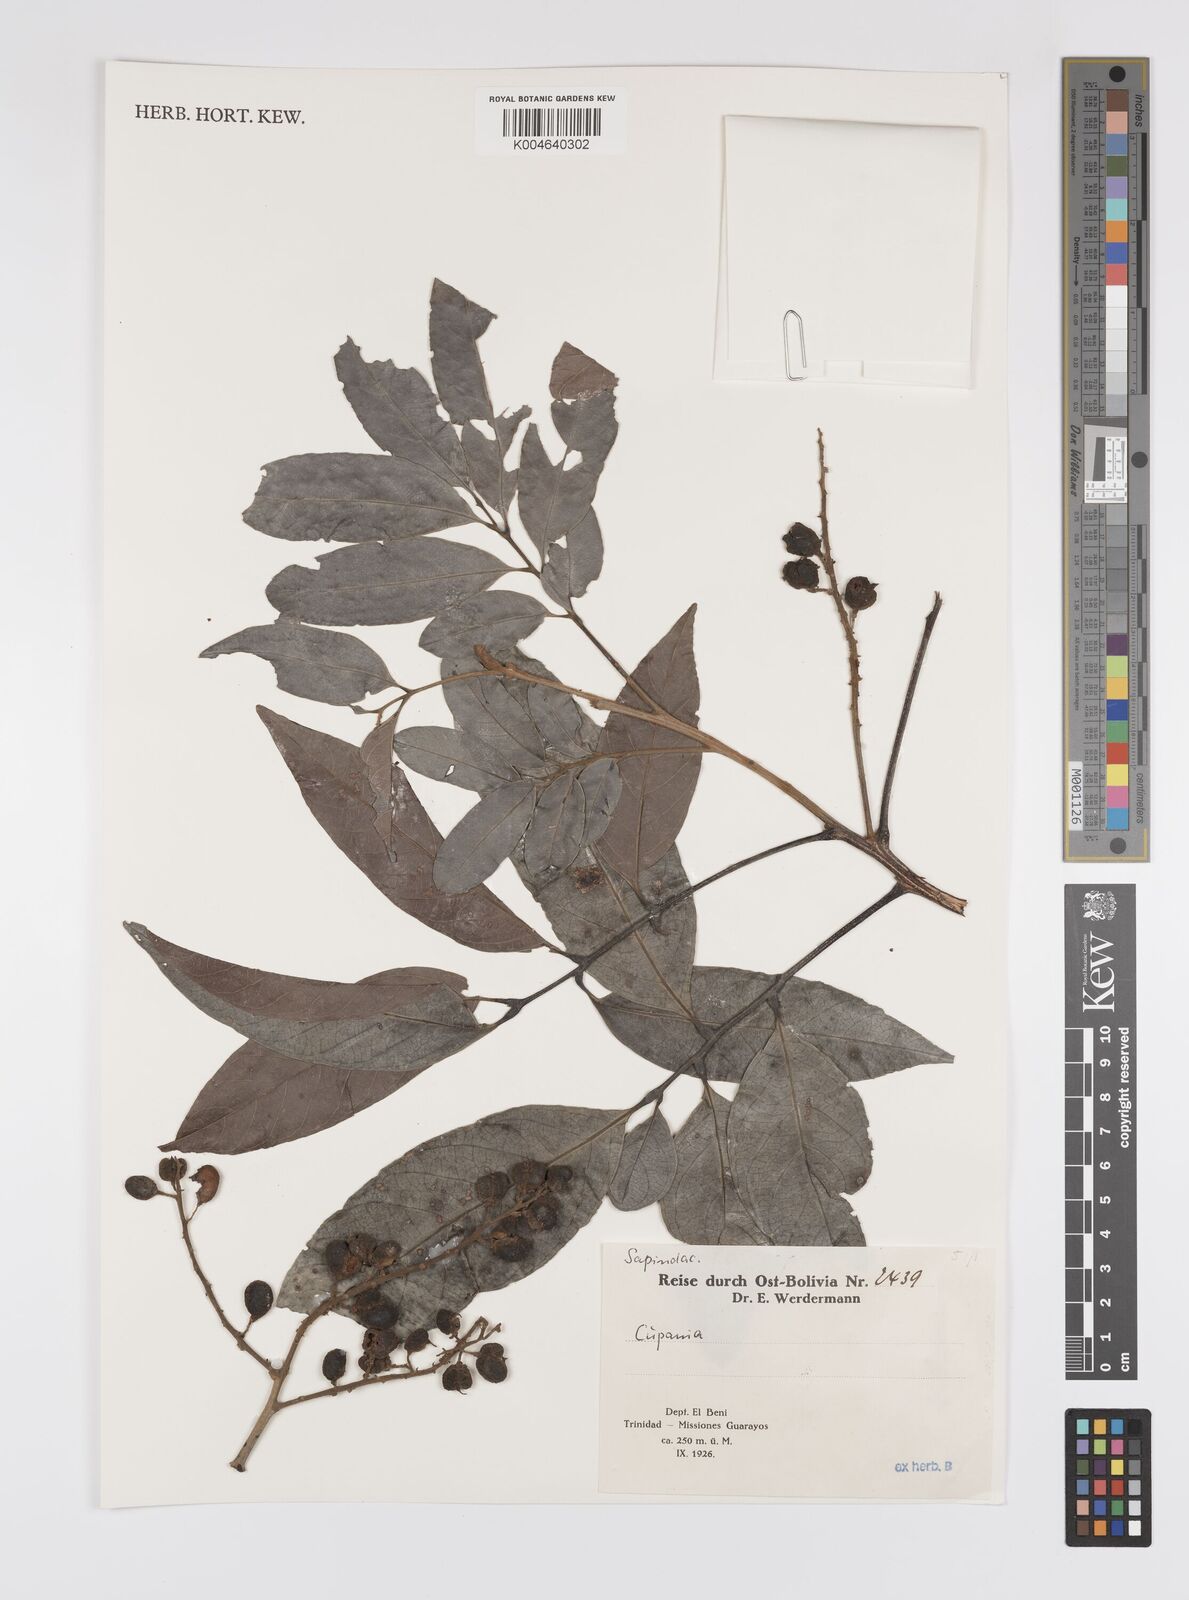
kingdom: Plantae
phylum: Tracheophyta
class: Magnoliopsida
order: Sapindales
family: Sapindaceae
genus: Cupania
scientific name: Cupania
